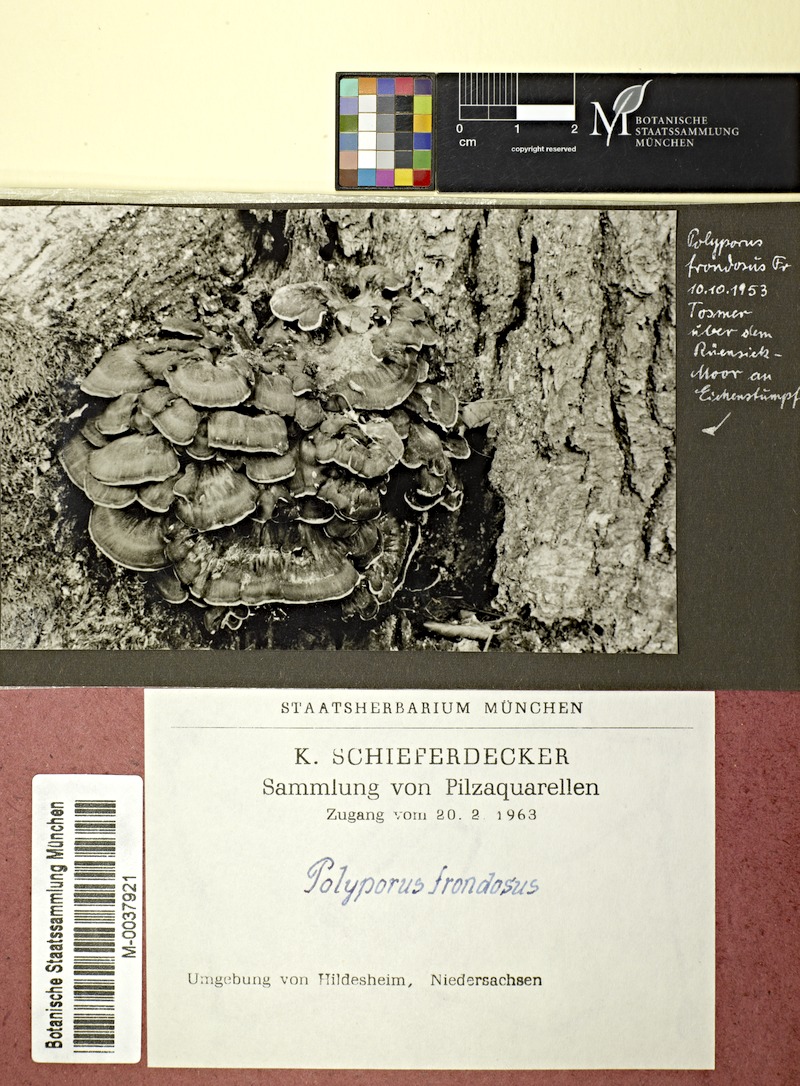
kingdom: Plantae
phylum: Tracheophyta
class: Magnoliopsida
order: Fagales
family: Fagaceae
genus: Quercus
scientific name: Quercus
